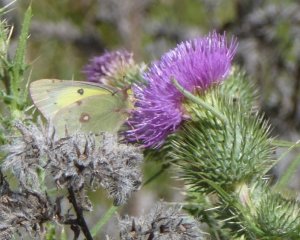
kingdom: Animalia
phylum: Arthropoda
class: Insecta
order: Lepidoptera
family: Pieridae
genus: Colias
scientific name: Colias philodice
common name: Clouded Sulphur
